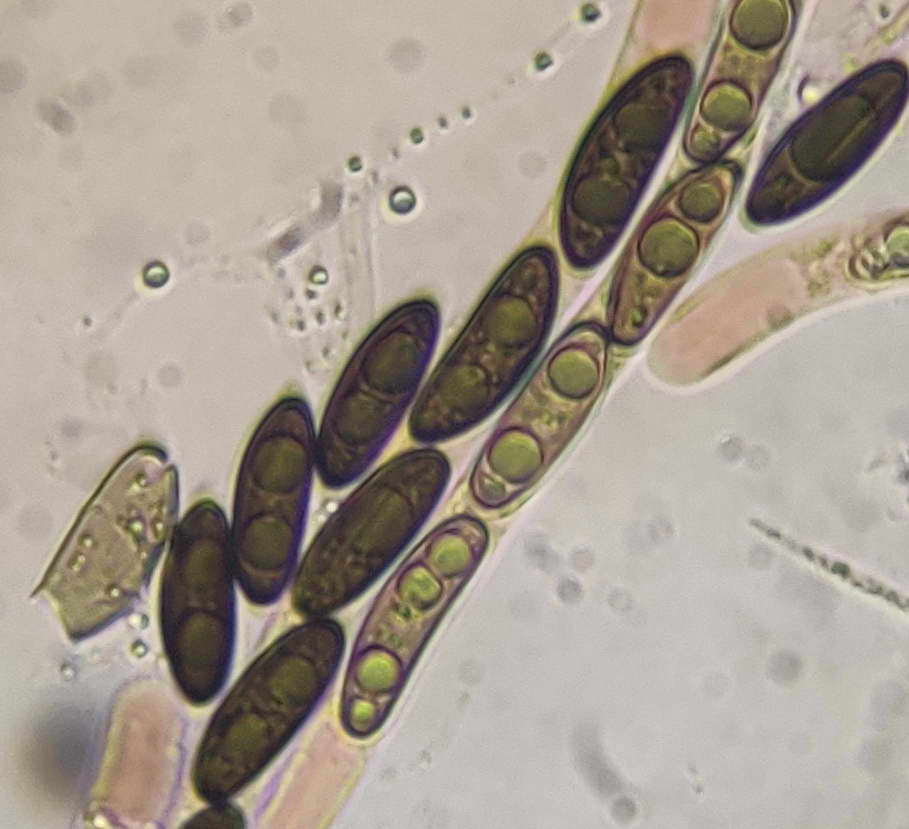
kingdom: Fungi
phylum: Ascomycota
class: Sordariomycetes
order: Xylariales
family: Xylariaceae
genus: Rosellinia
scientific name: Rosellinia aquila
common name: tykskallet kulkaviar
